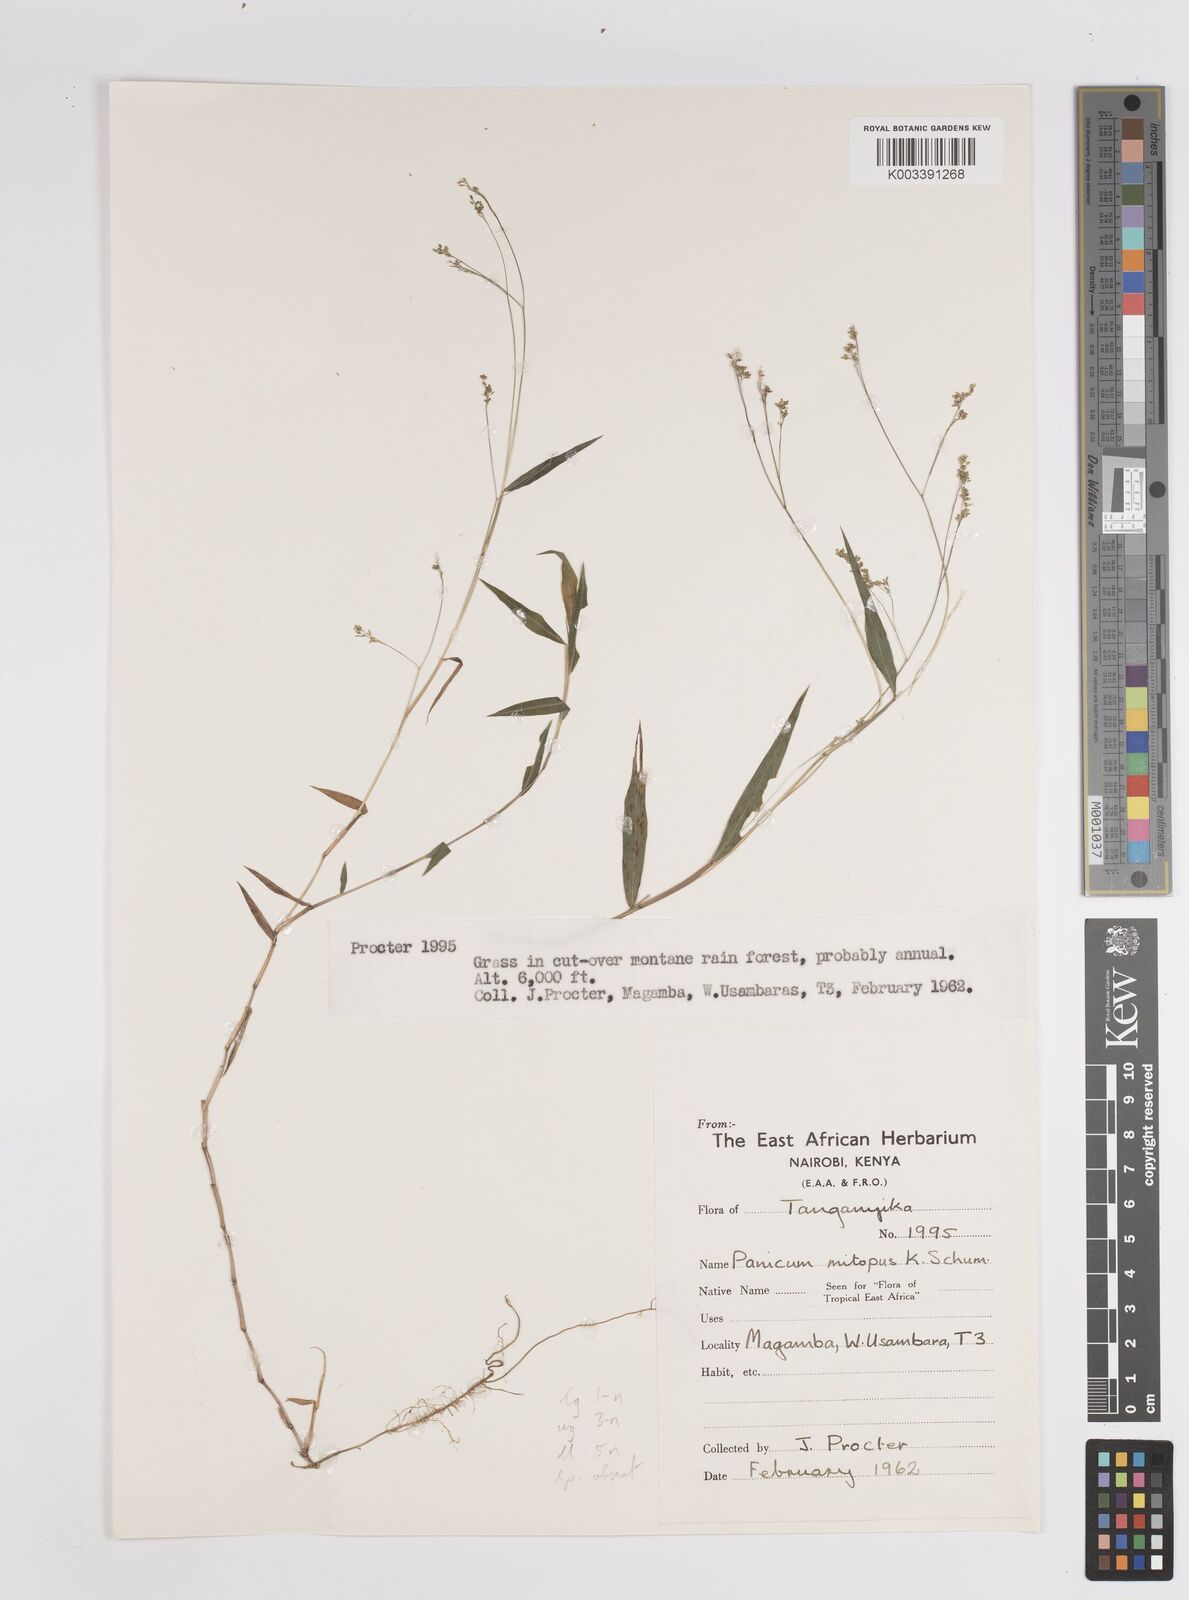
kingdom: Plantae
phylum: Tracheophyta
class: Liliopsida
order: Poales
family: Poaceae
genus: Panicum
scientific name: Panicum mitopus
